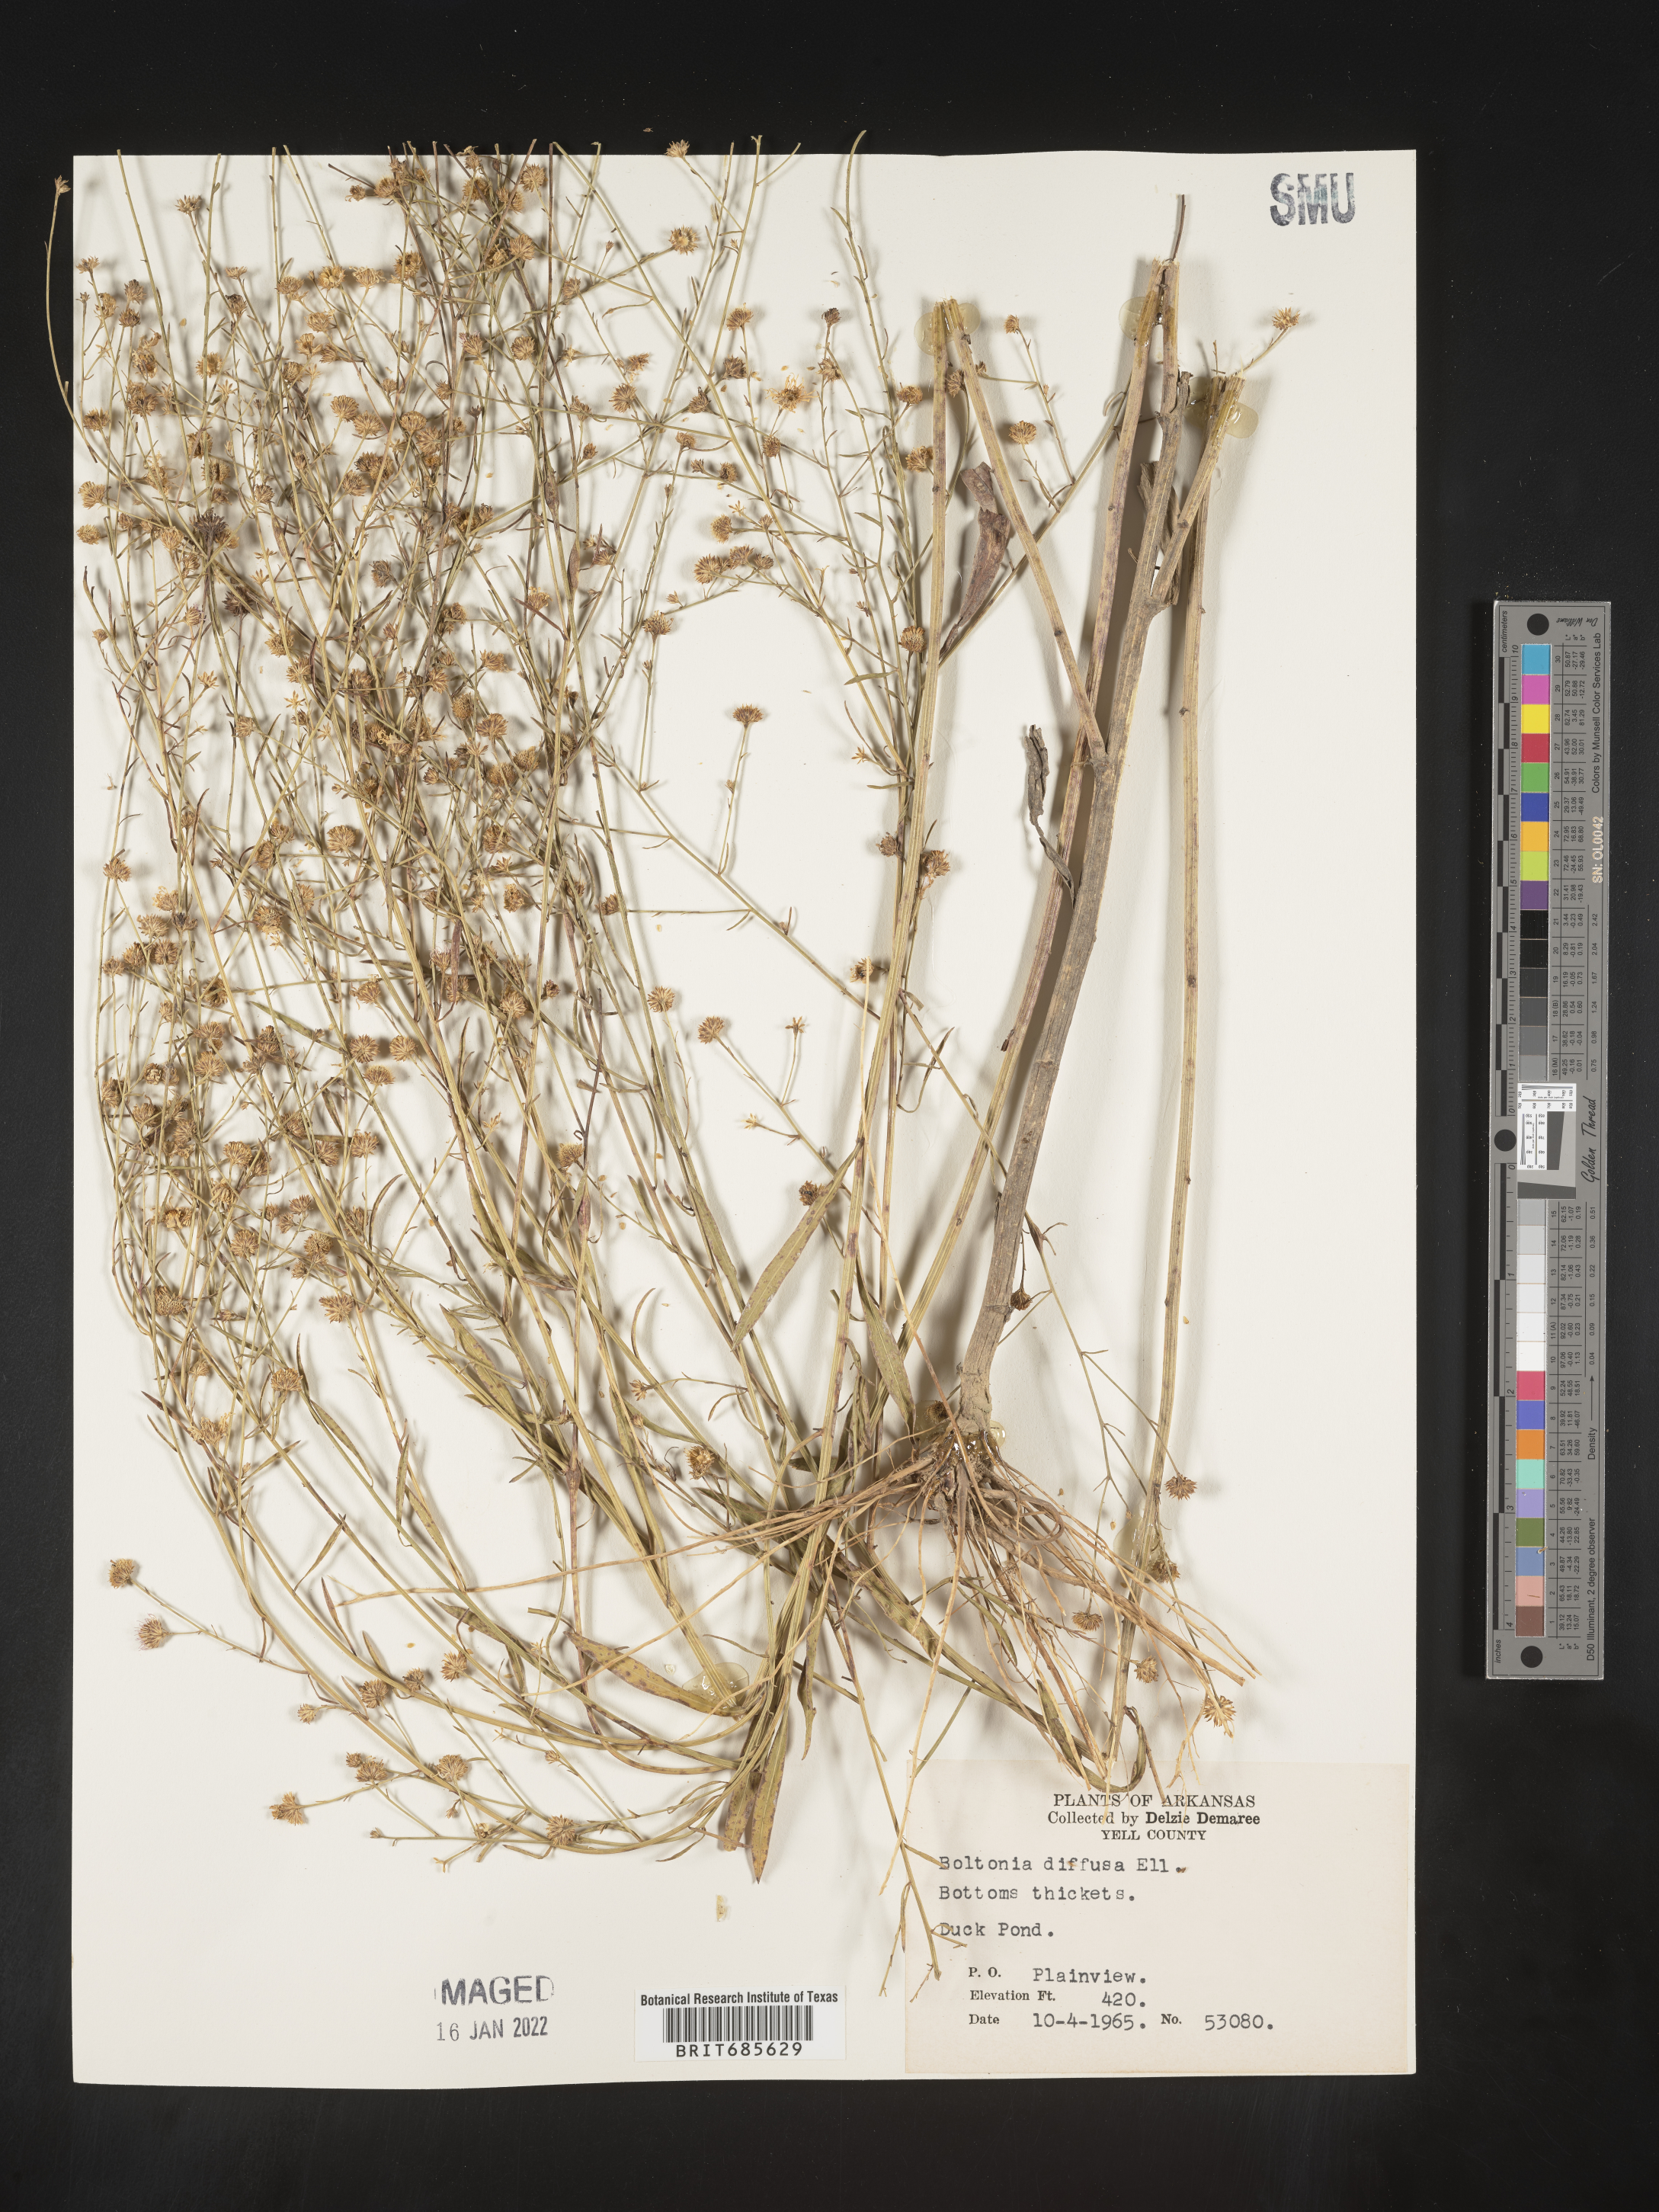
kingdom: Plantae
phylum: Tracheophyta
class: Magnoliopsida
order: Asterales
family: Asteraceae
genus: Boltonia
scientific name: Boltonia diffusa
